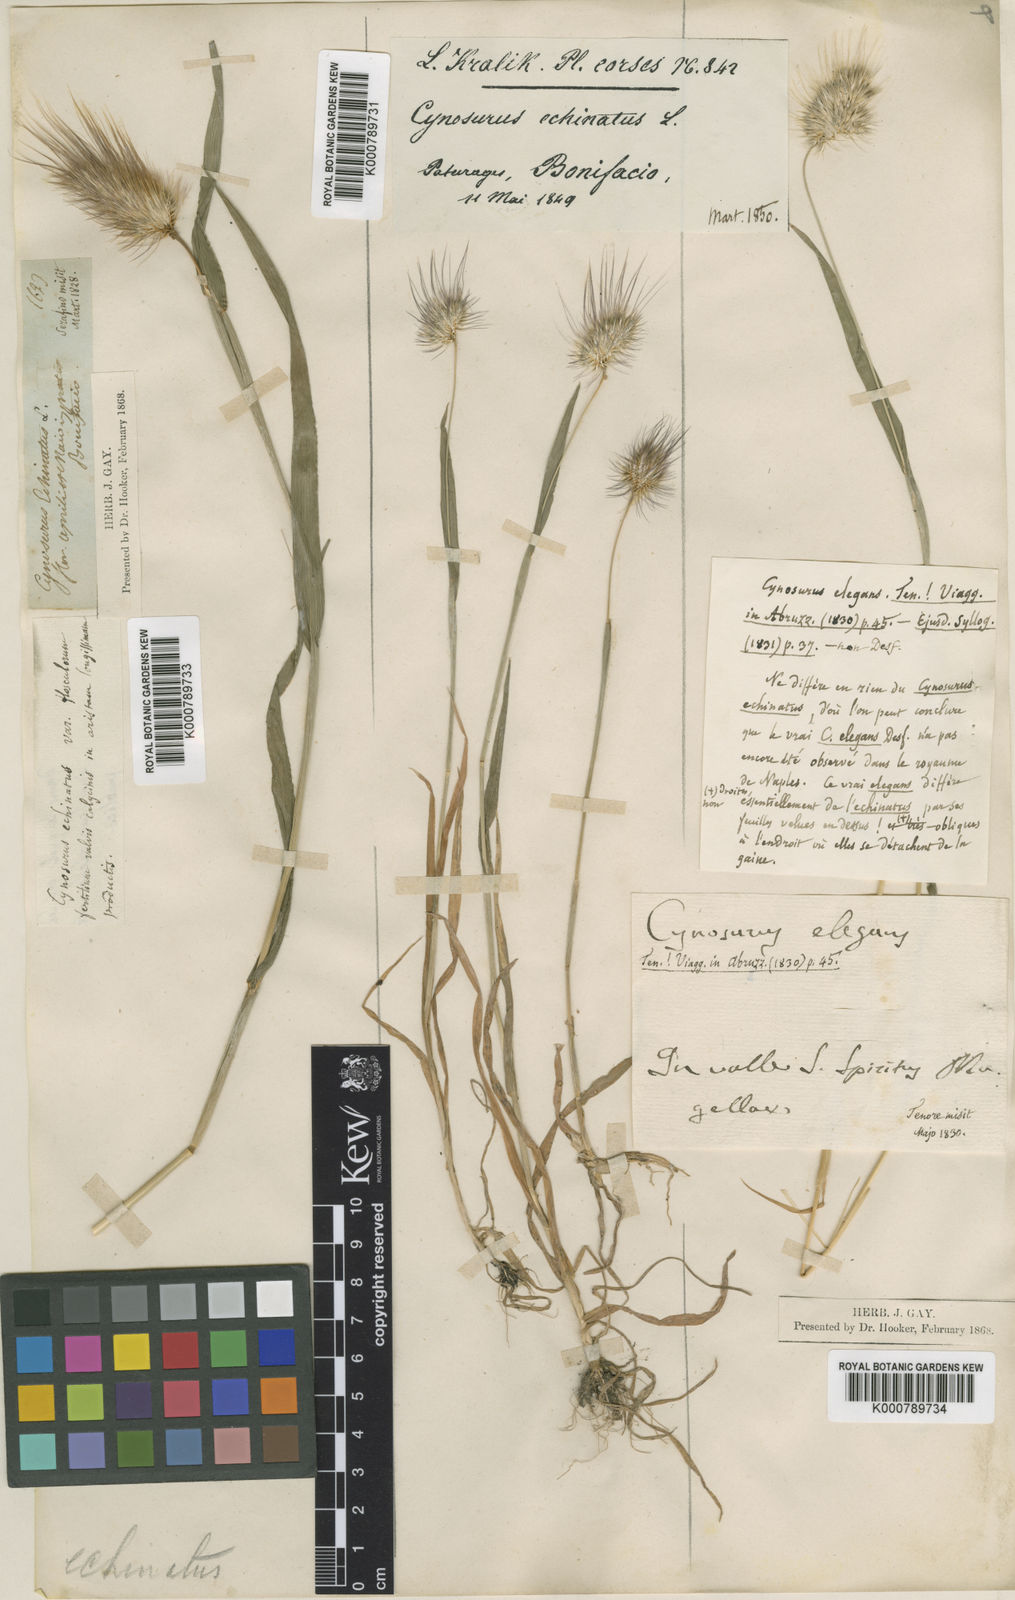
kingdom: Plantae
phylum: Tracheophyta
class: Liliopsida
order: Poales
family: Poaceae
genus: Cynosurus
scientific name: Cynosurus echinatus
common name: Rough dog's-tail
